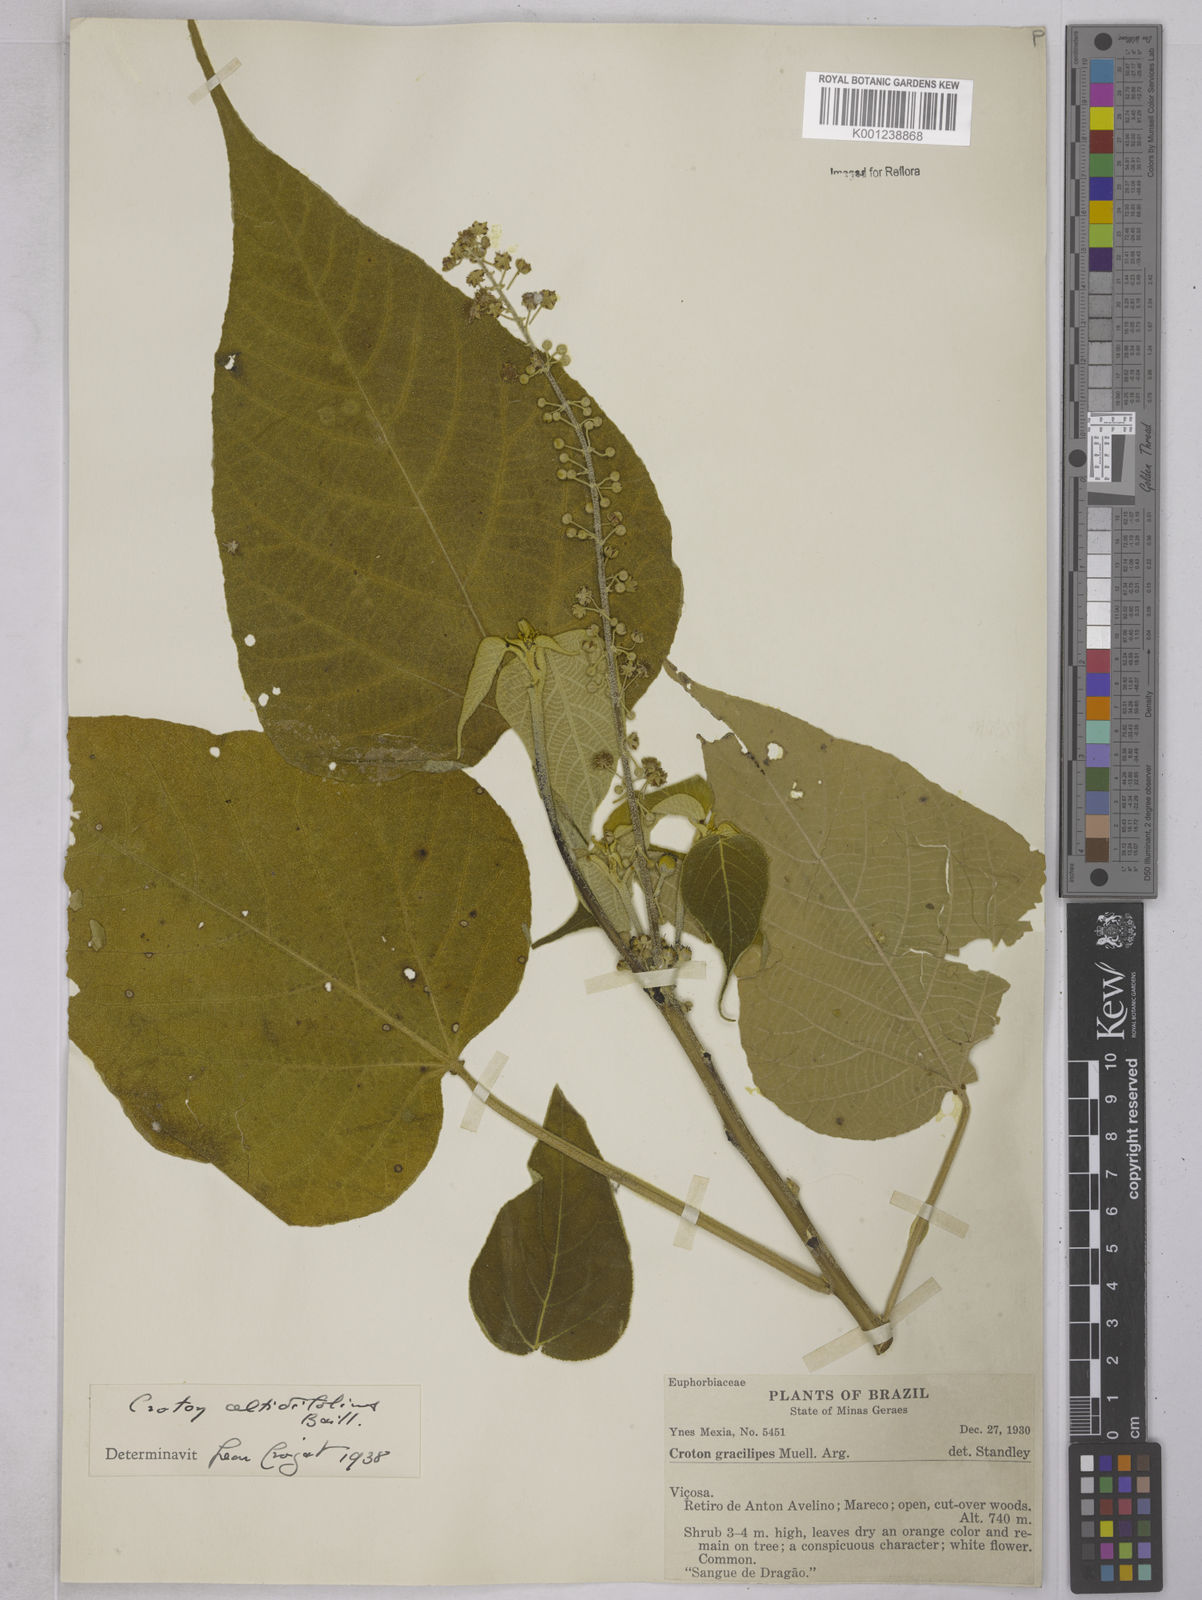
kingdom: Plantae
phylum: Tracheophyta
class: Magnoliopsida
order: Malpighiales
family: Euphorbiaceae
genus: Croton
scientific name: Croton celtidifolius
